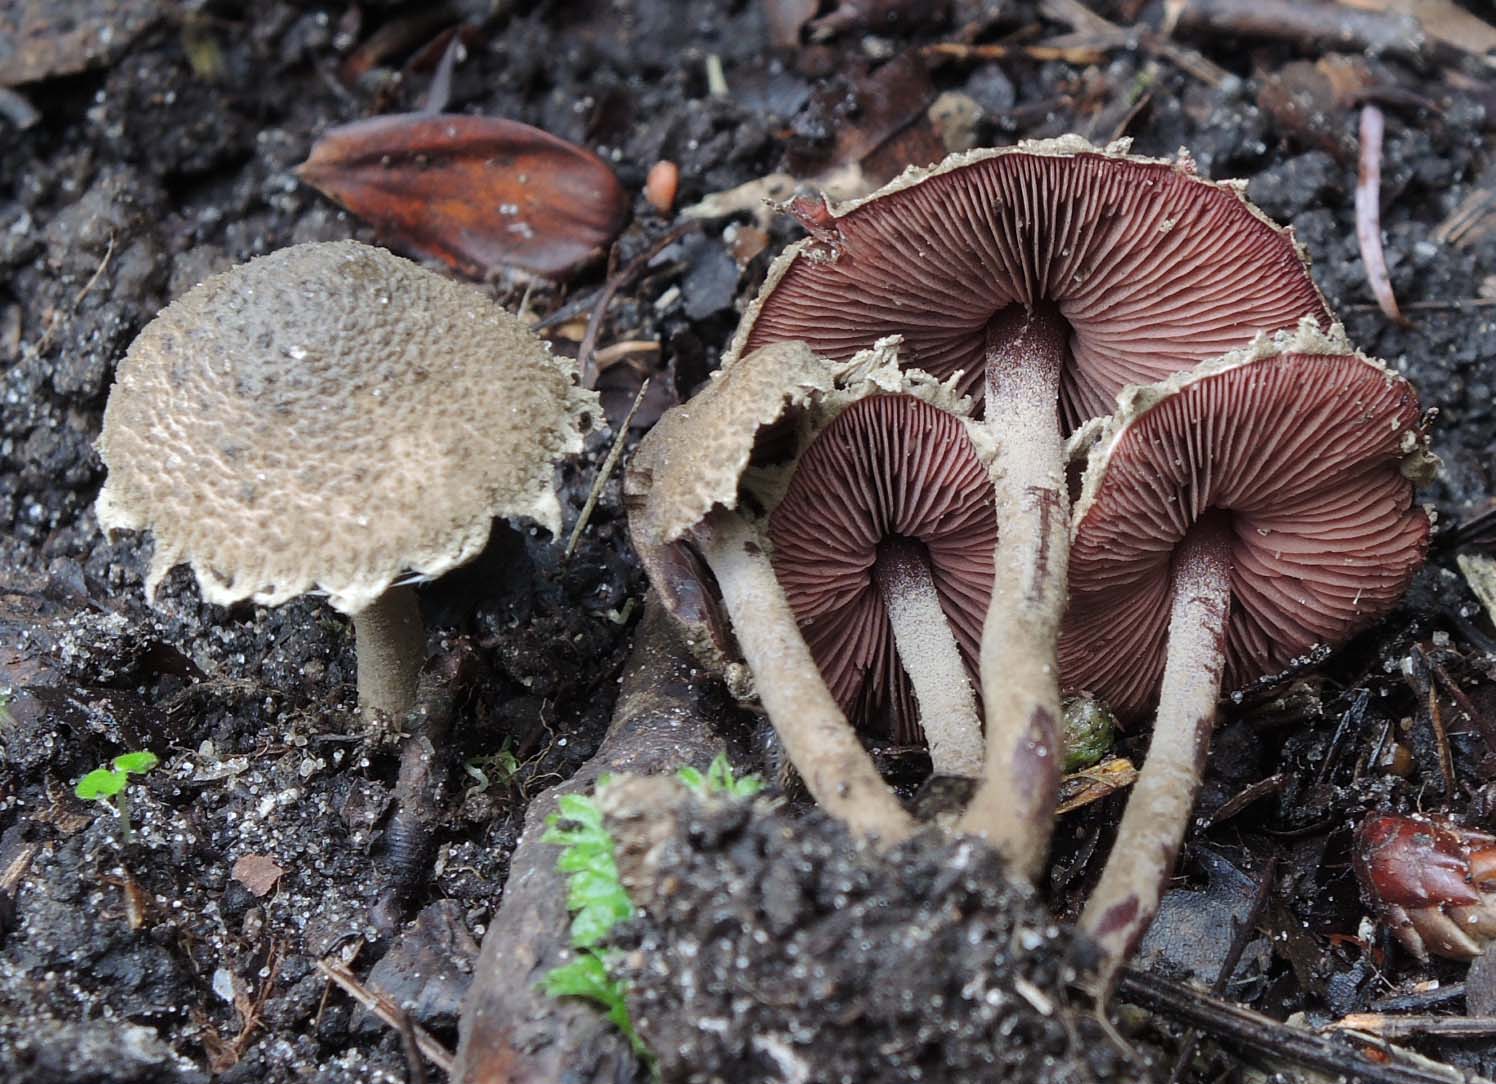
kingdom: Fungi
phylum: Basidiomycota
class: Agaricomycetes
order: Agaricales
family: Agaricaceae
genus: Melanophyllum
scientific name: Melanophyllum haematospermum
